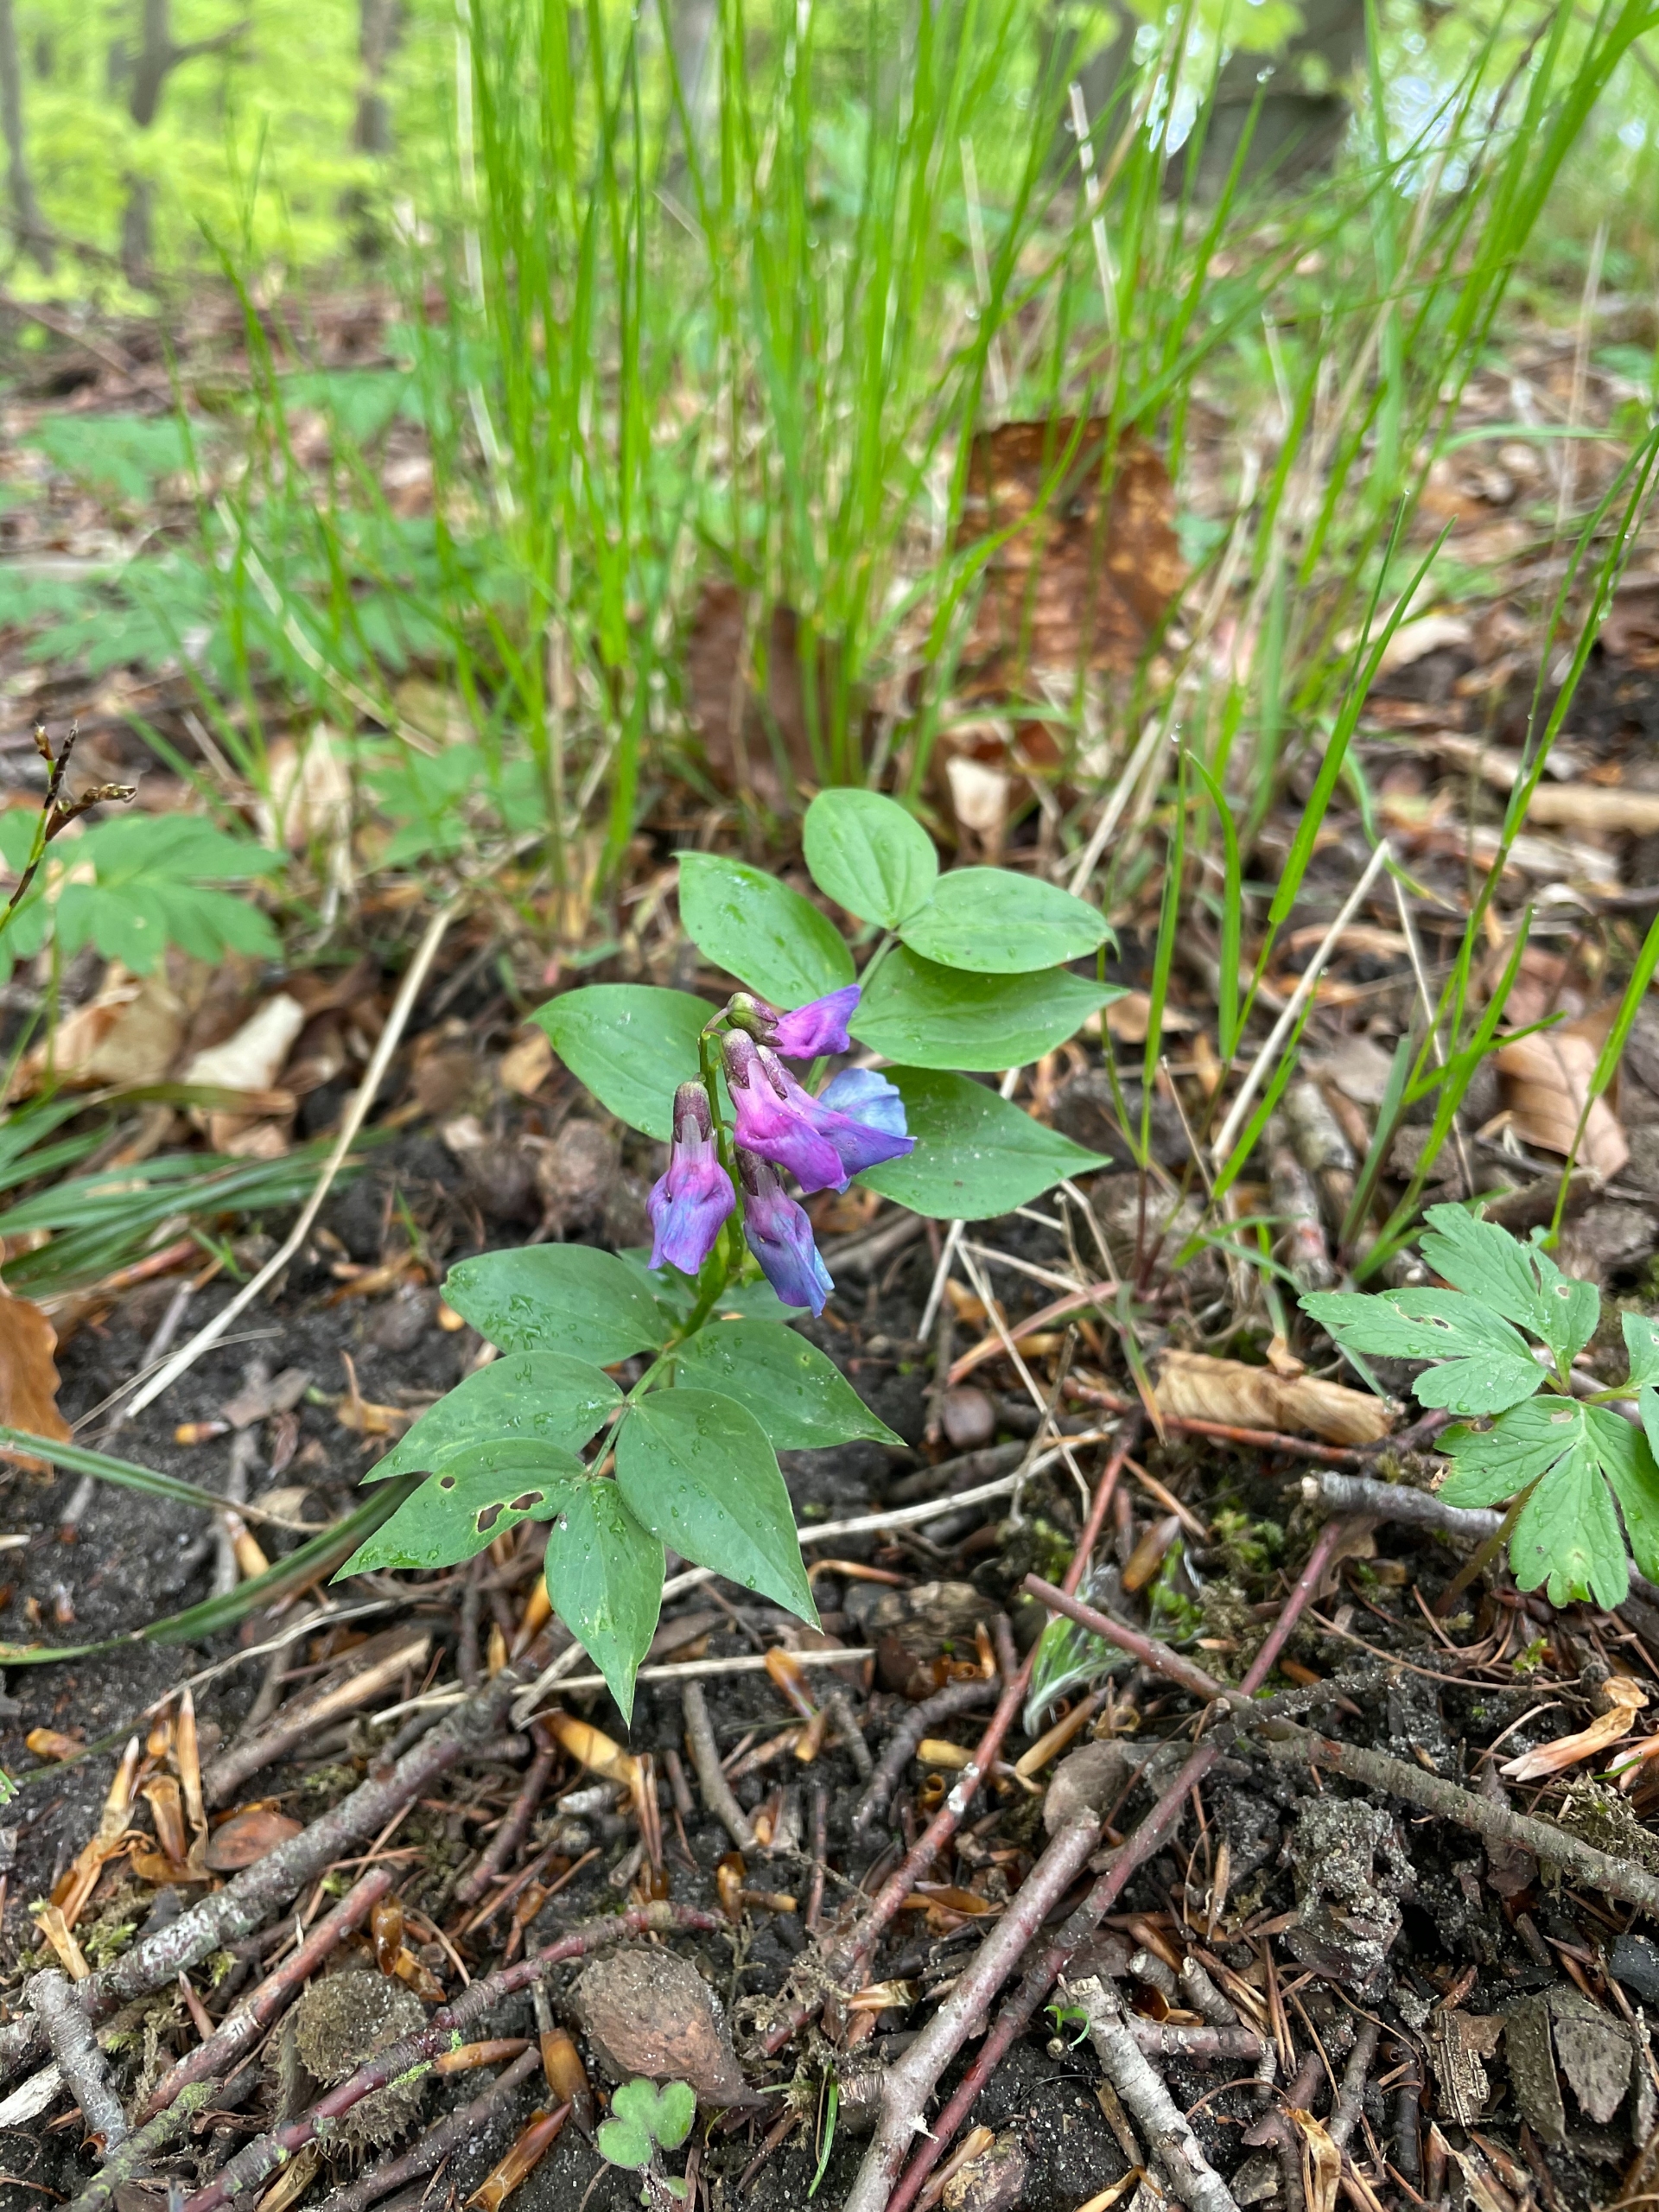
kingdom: Plantae
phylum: Tracheophyta
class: Magnoliopsida
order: Fabales
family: Fabaceae
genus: Lathyrus
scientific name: Lathyrus vernus
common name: Vår-fladbælg
